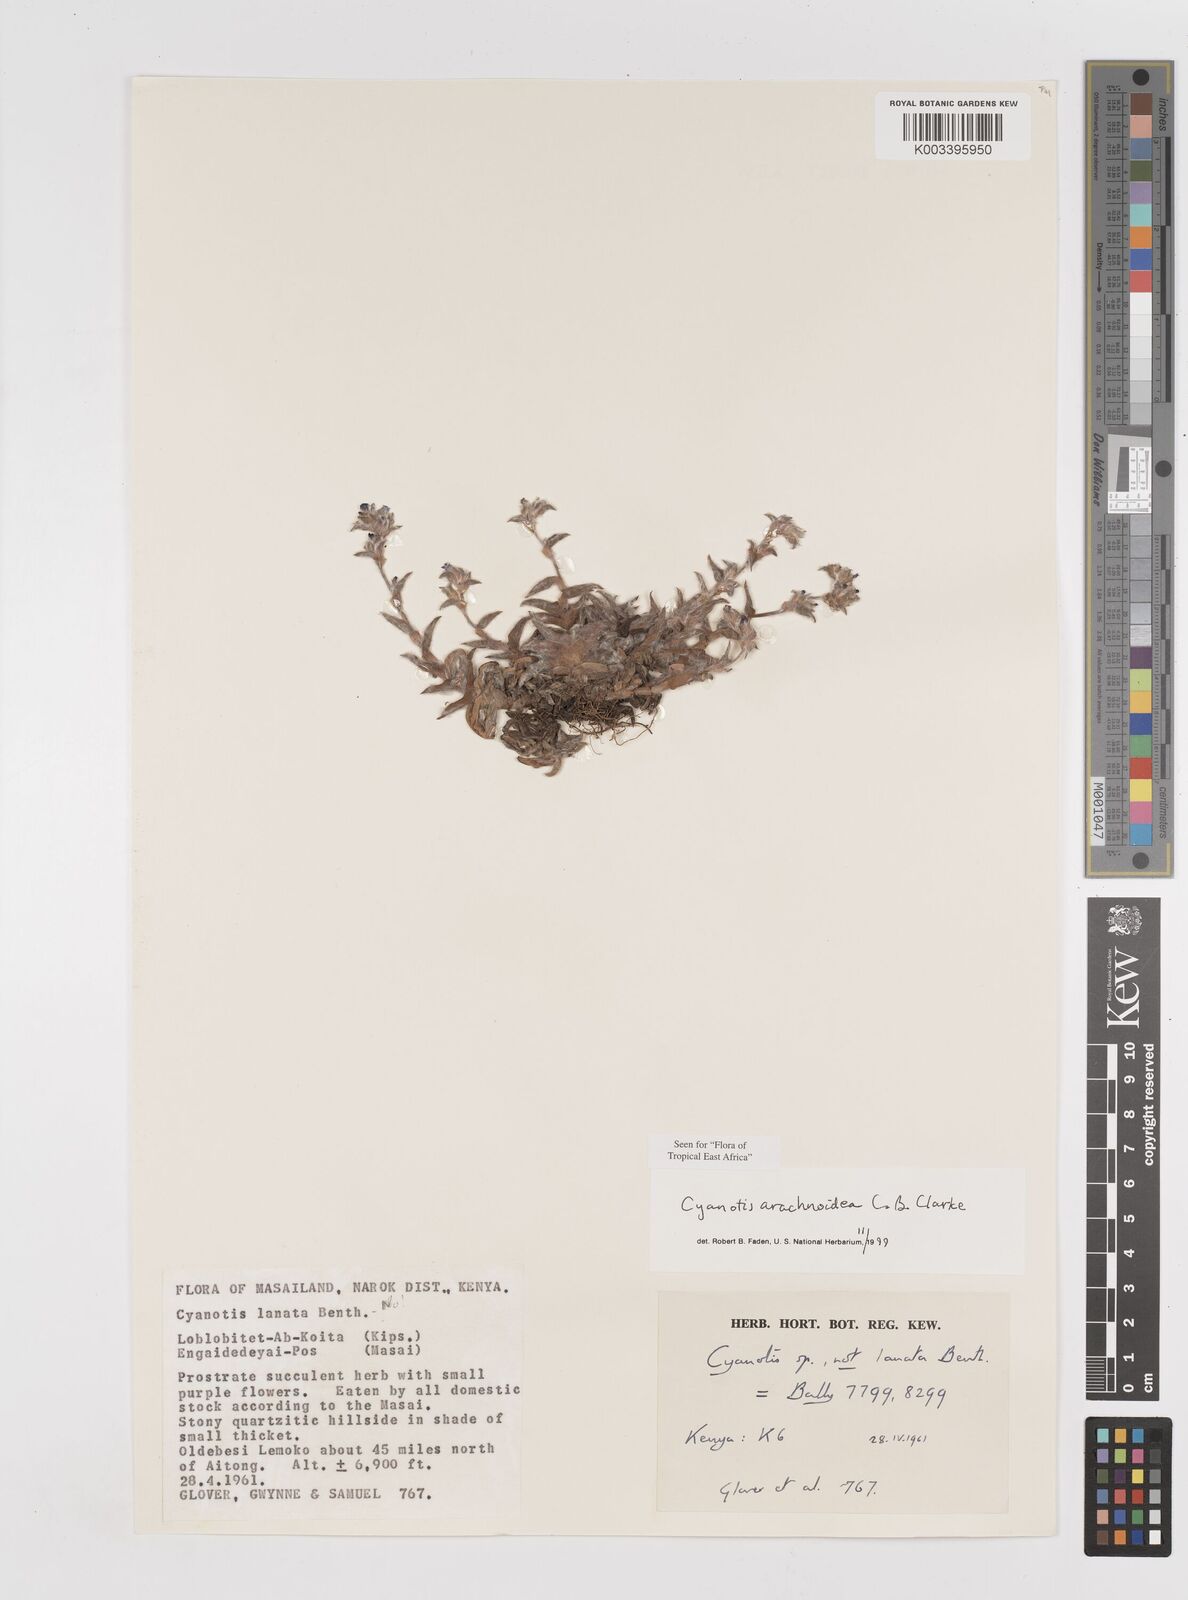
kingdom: Plantae
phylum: Tracheophyta
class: Liliopsida
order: Commelinales
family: Commelinaceae
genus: Cyanotis
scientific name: Cyanotis arachnoidea
